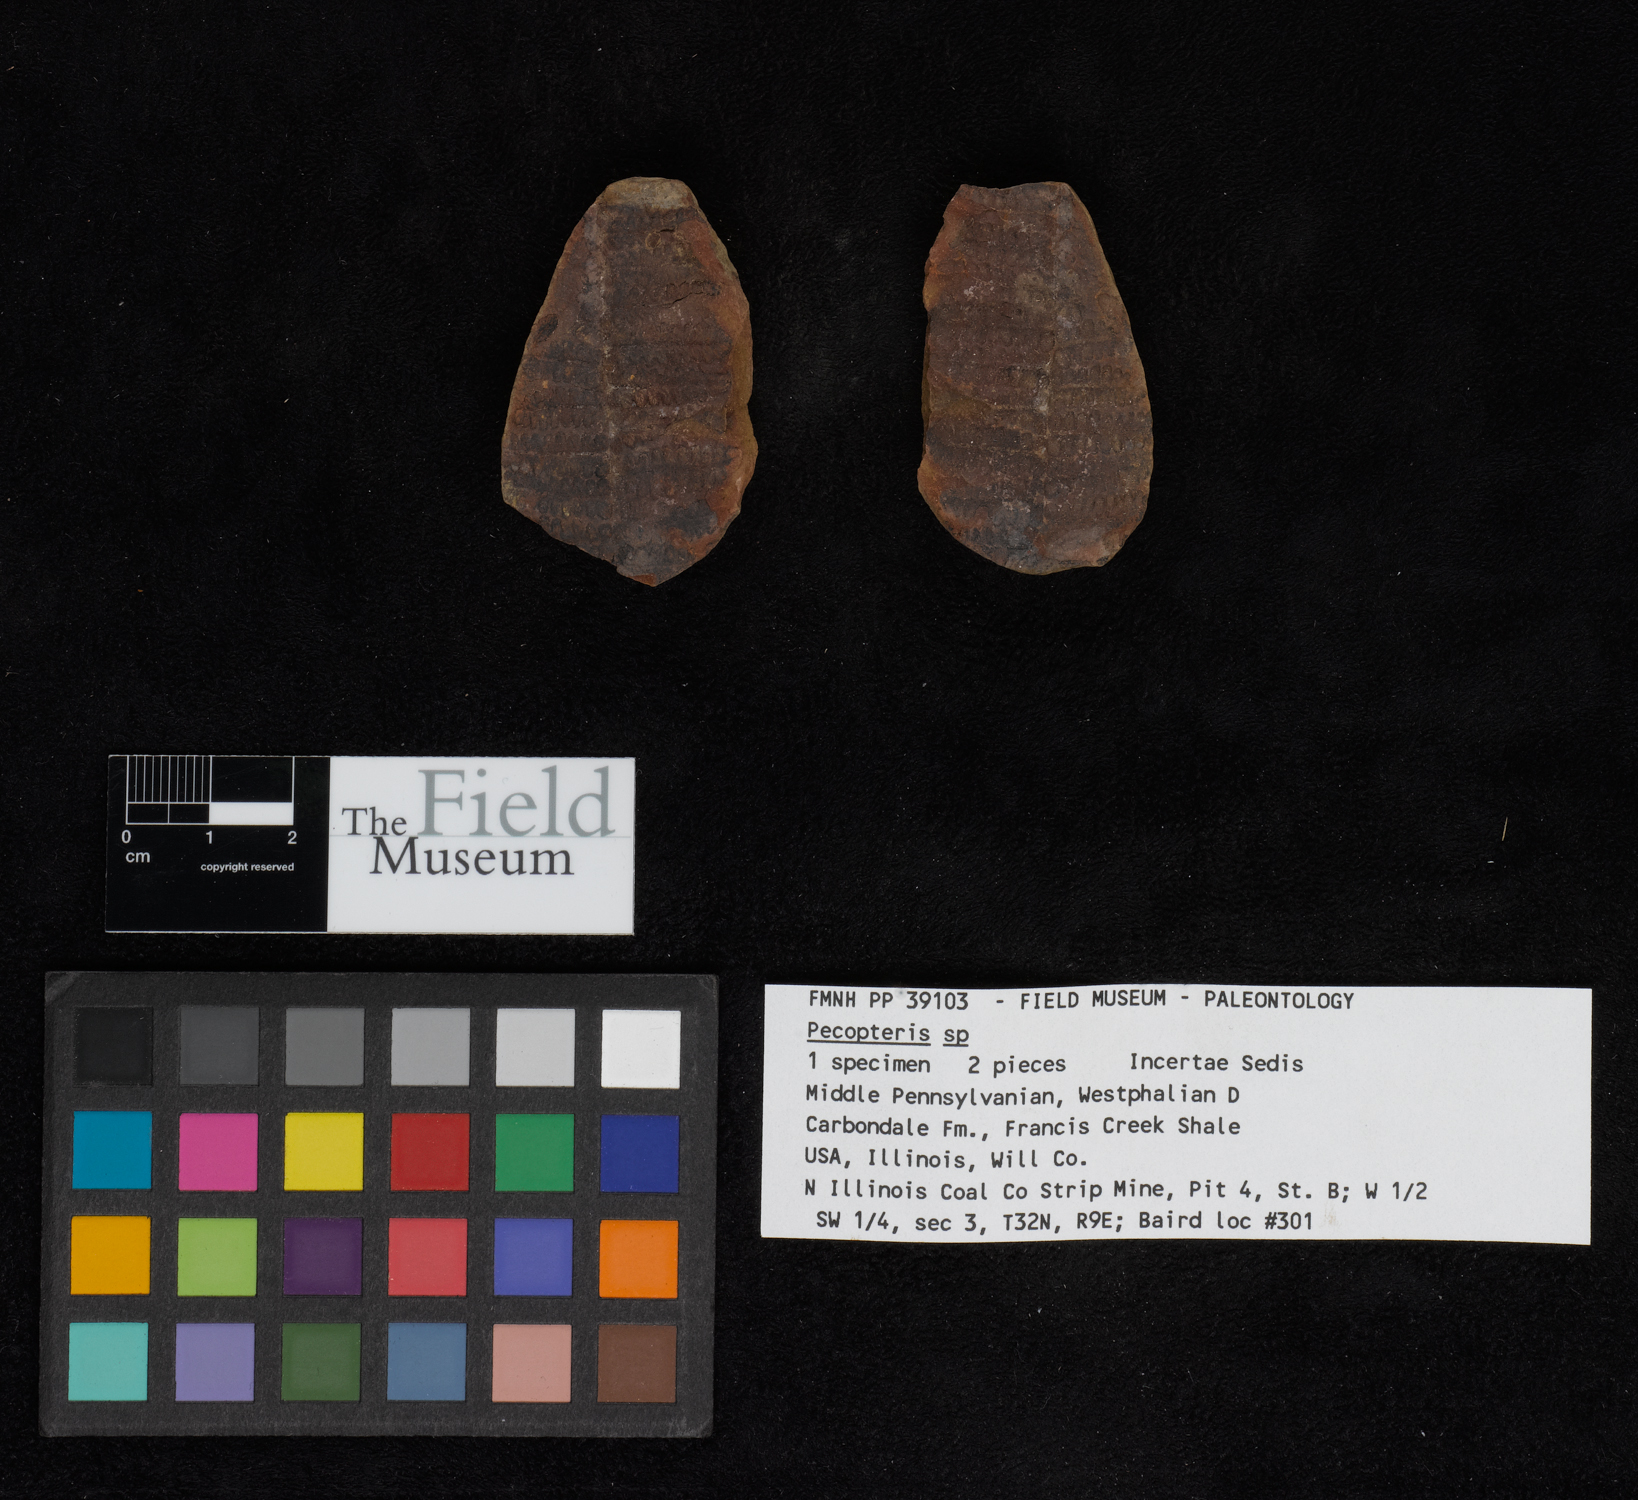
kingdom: Plantae
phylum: Tracheophyta
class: Polypodiopsida
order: Marattiales
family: Asterothecaceae
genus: Pecopteris
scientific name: Pecopteris
